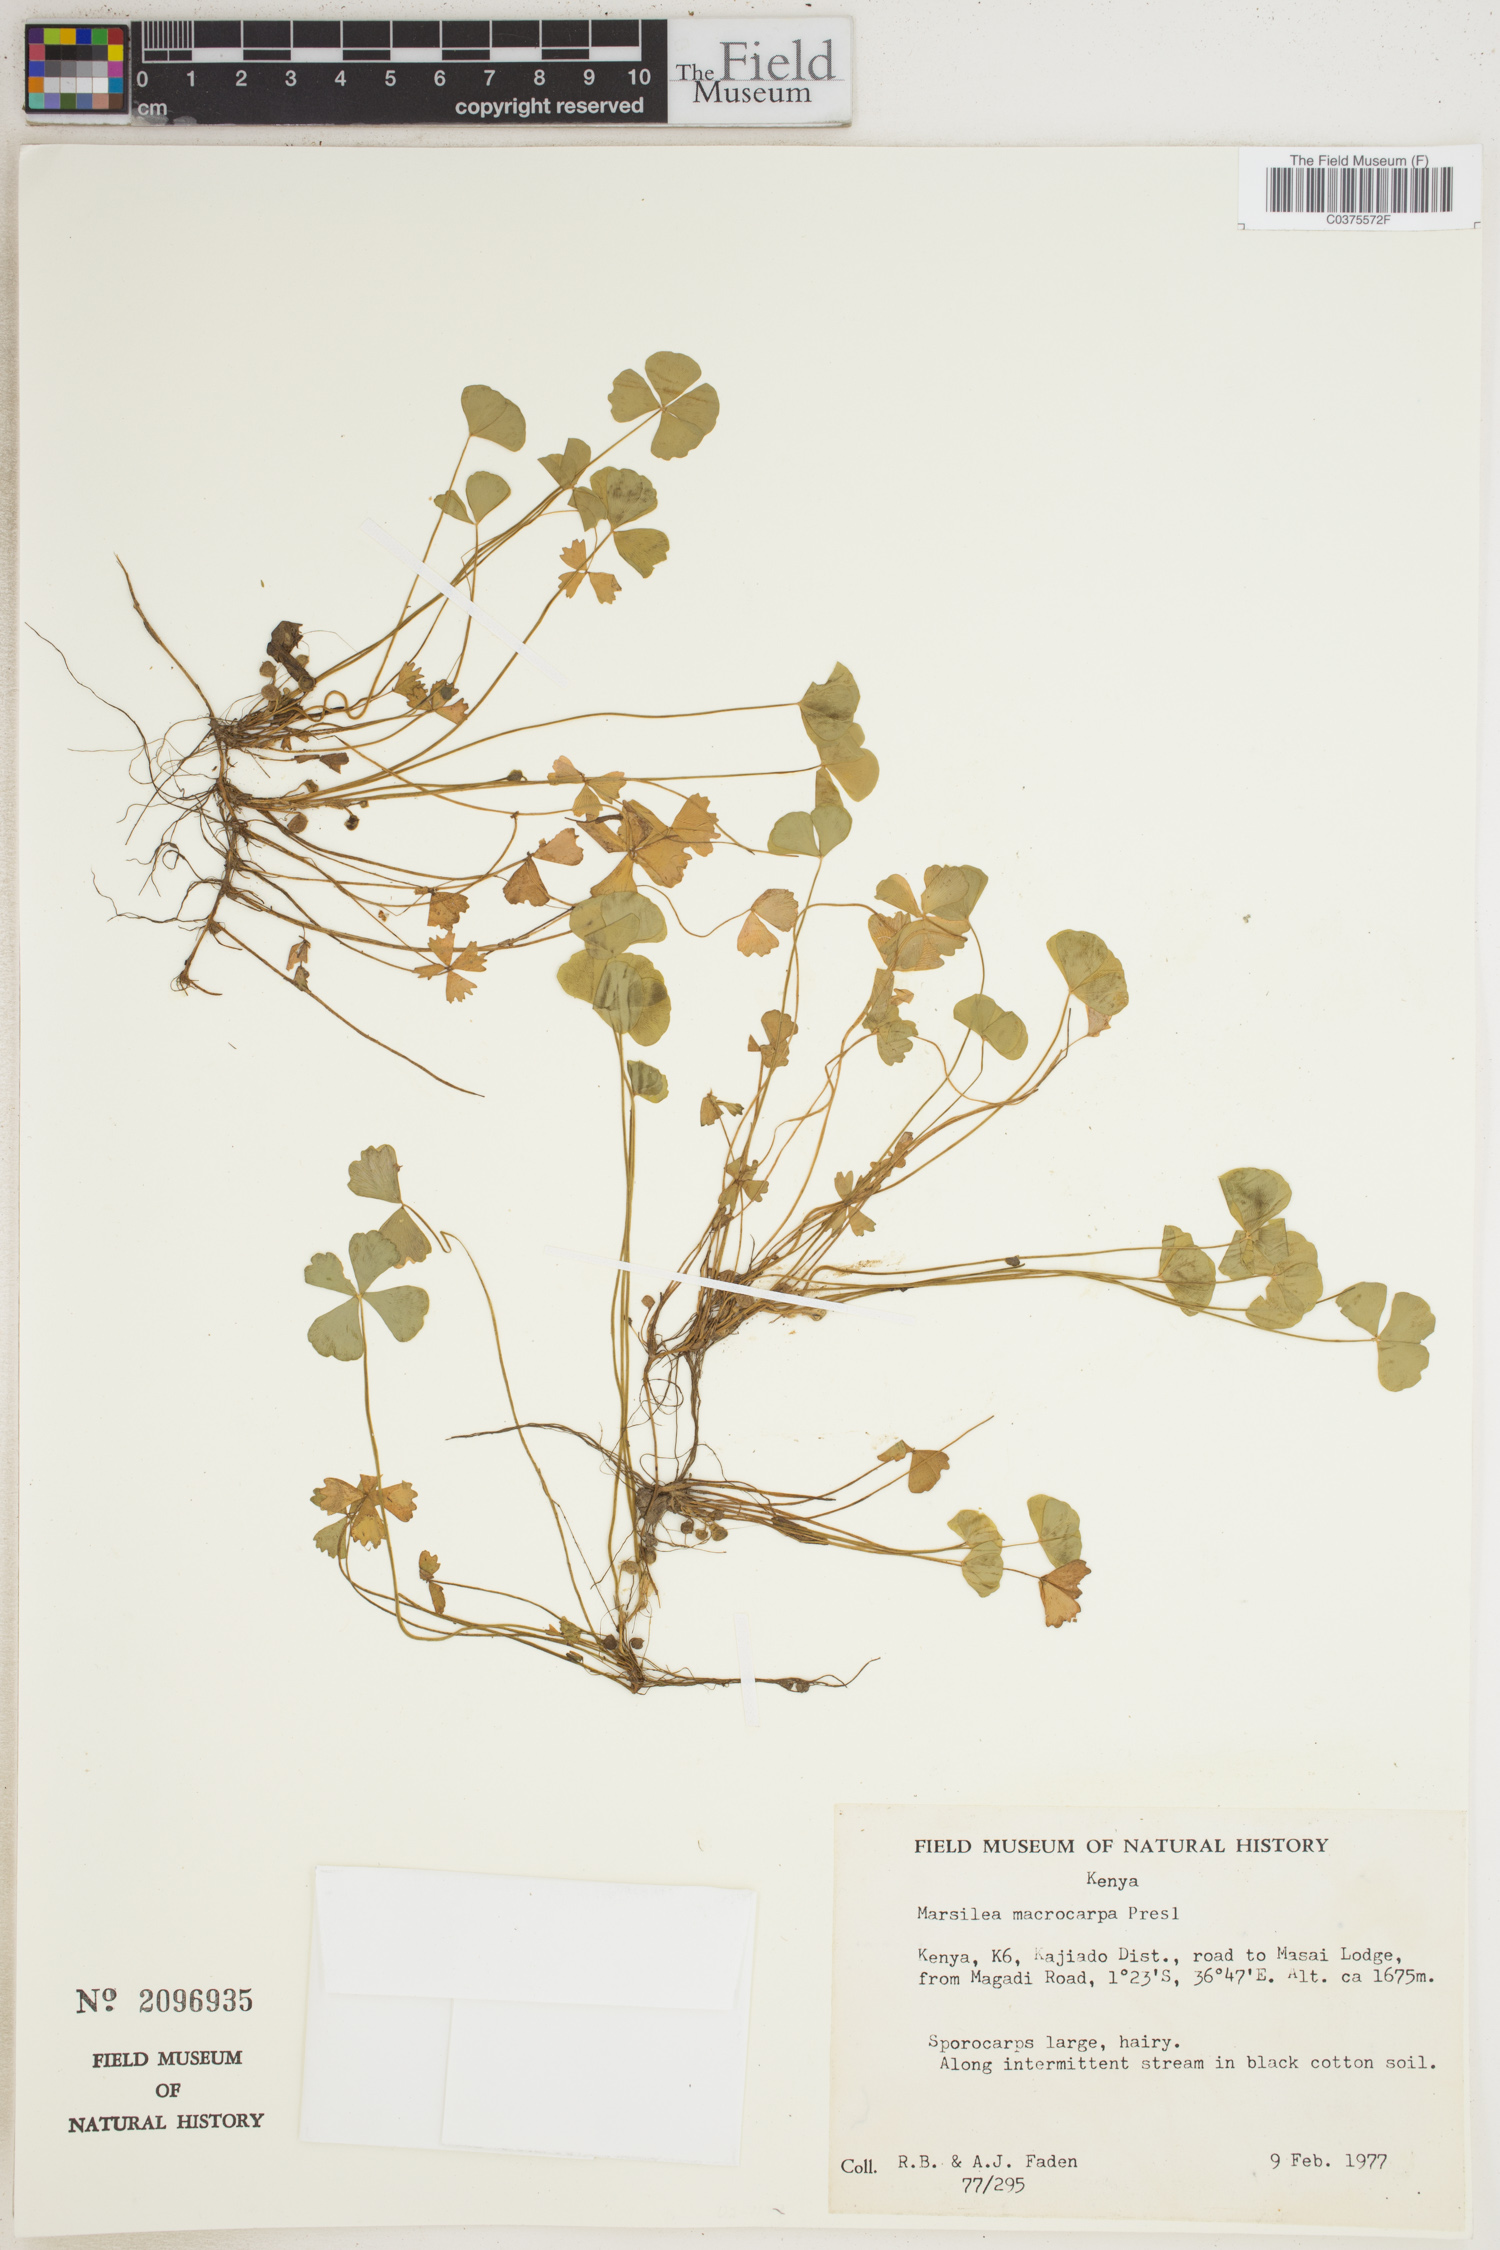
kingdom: Plantae
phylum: Tracheophyta
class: Polypodiopsida
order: Salviniales
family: Marsileaceae
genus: Marsilea
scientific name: Marsilea macrocarpa
